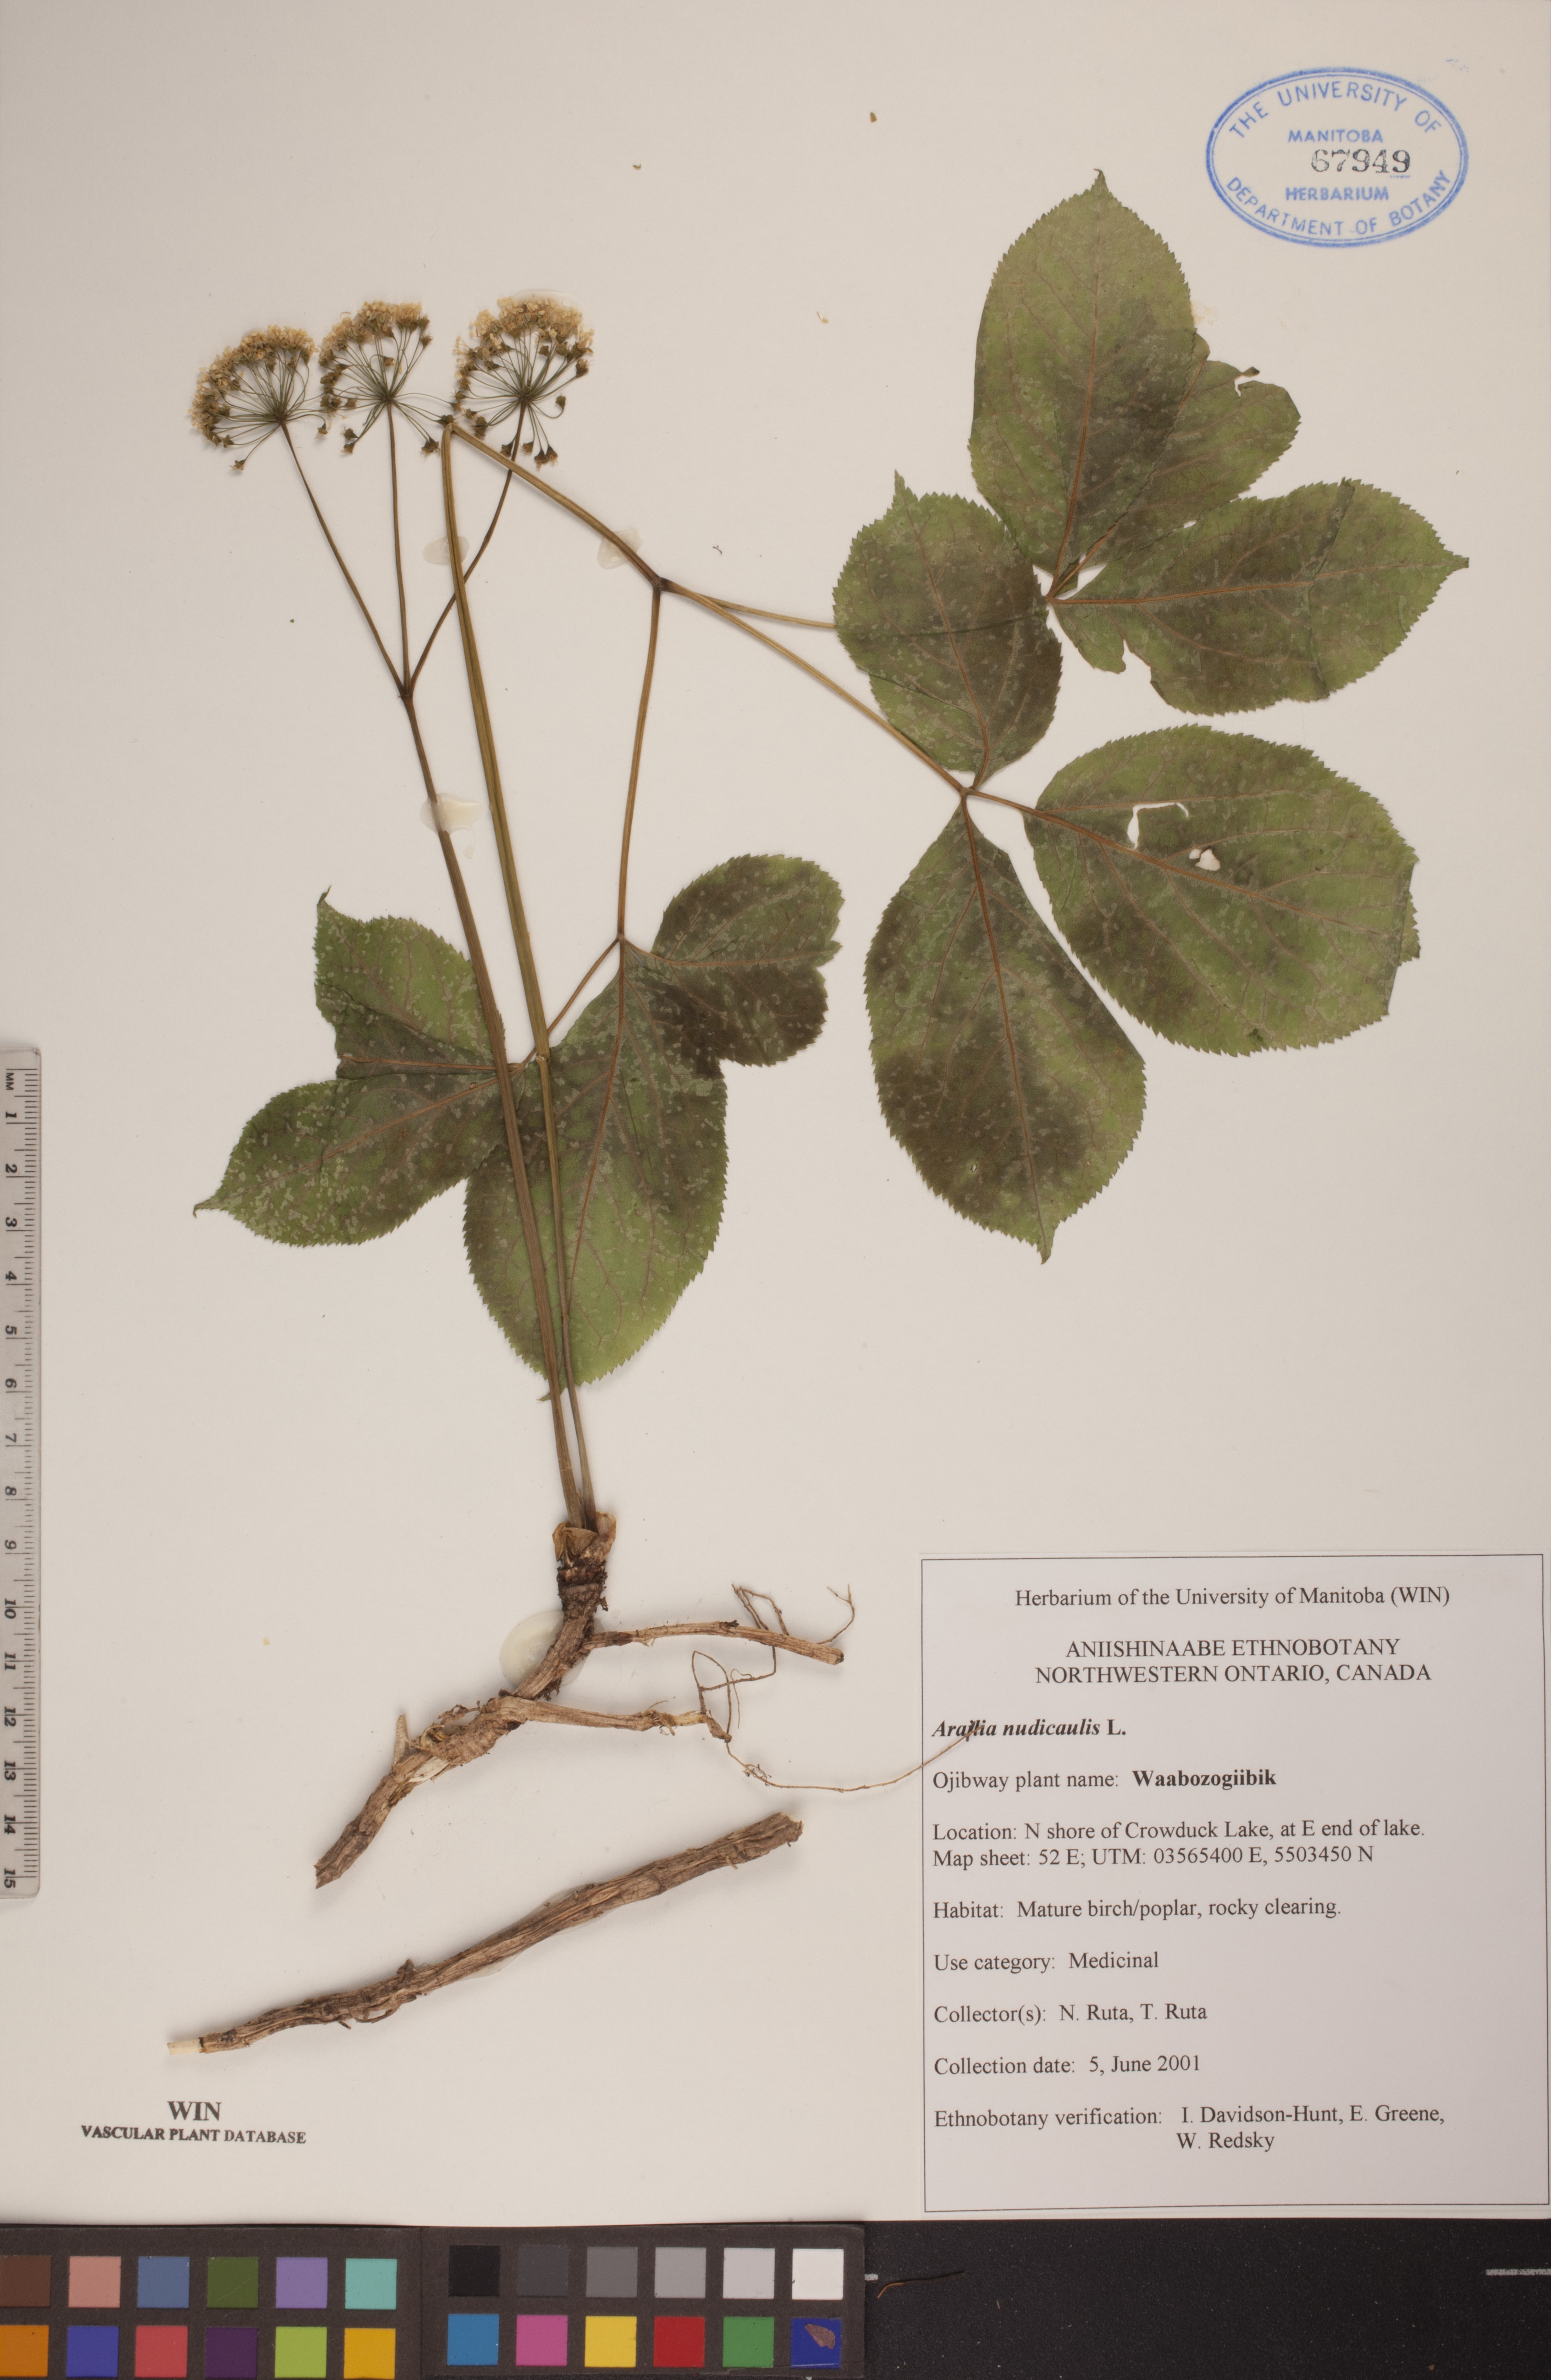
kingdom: Plantae
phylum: Tracheophyta
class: Magnoliopsida
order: Apiales
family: Araliaceae
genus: Aralia
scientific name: Aralia nudicaulis
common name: Wild sarsaparilla
